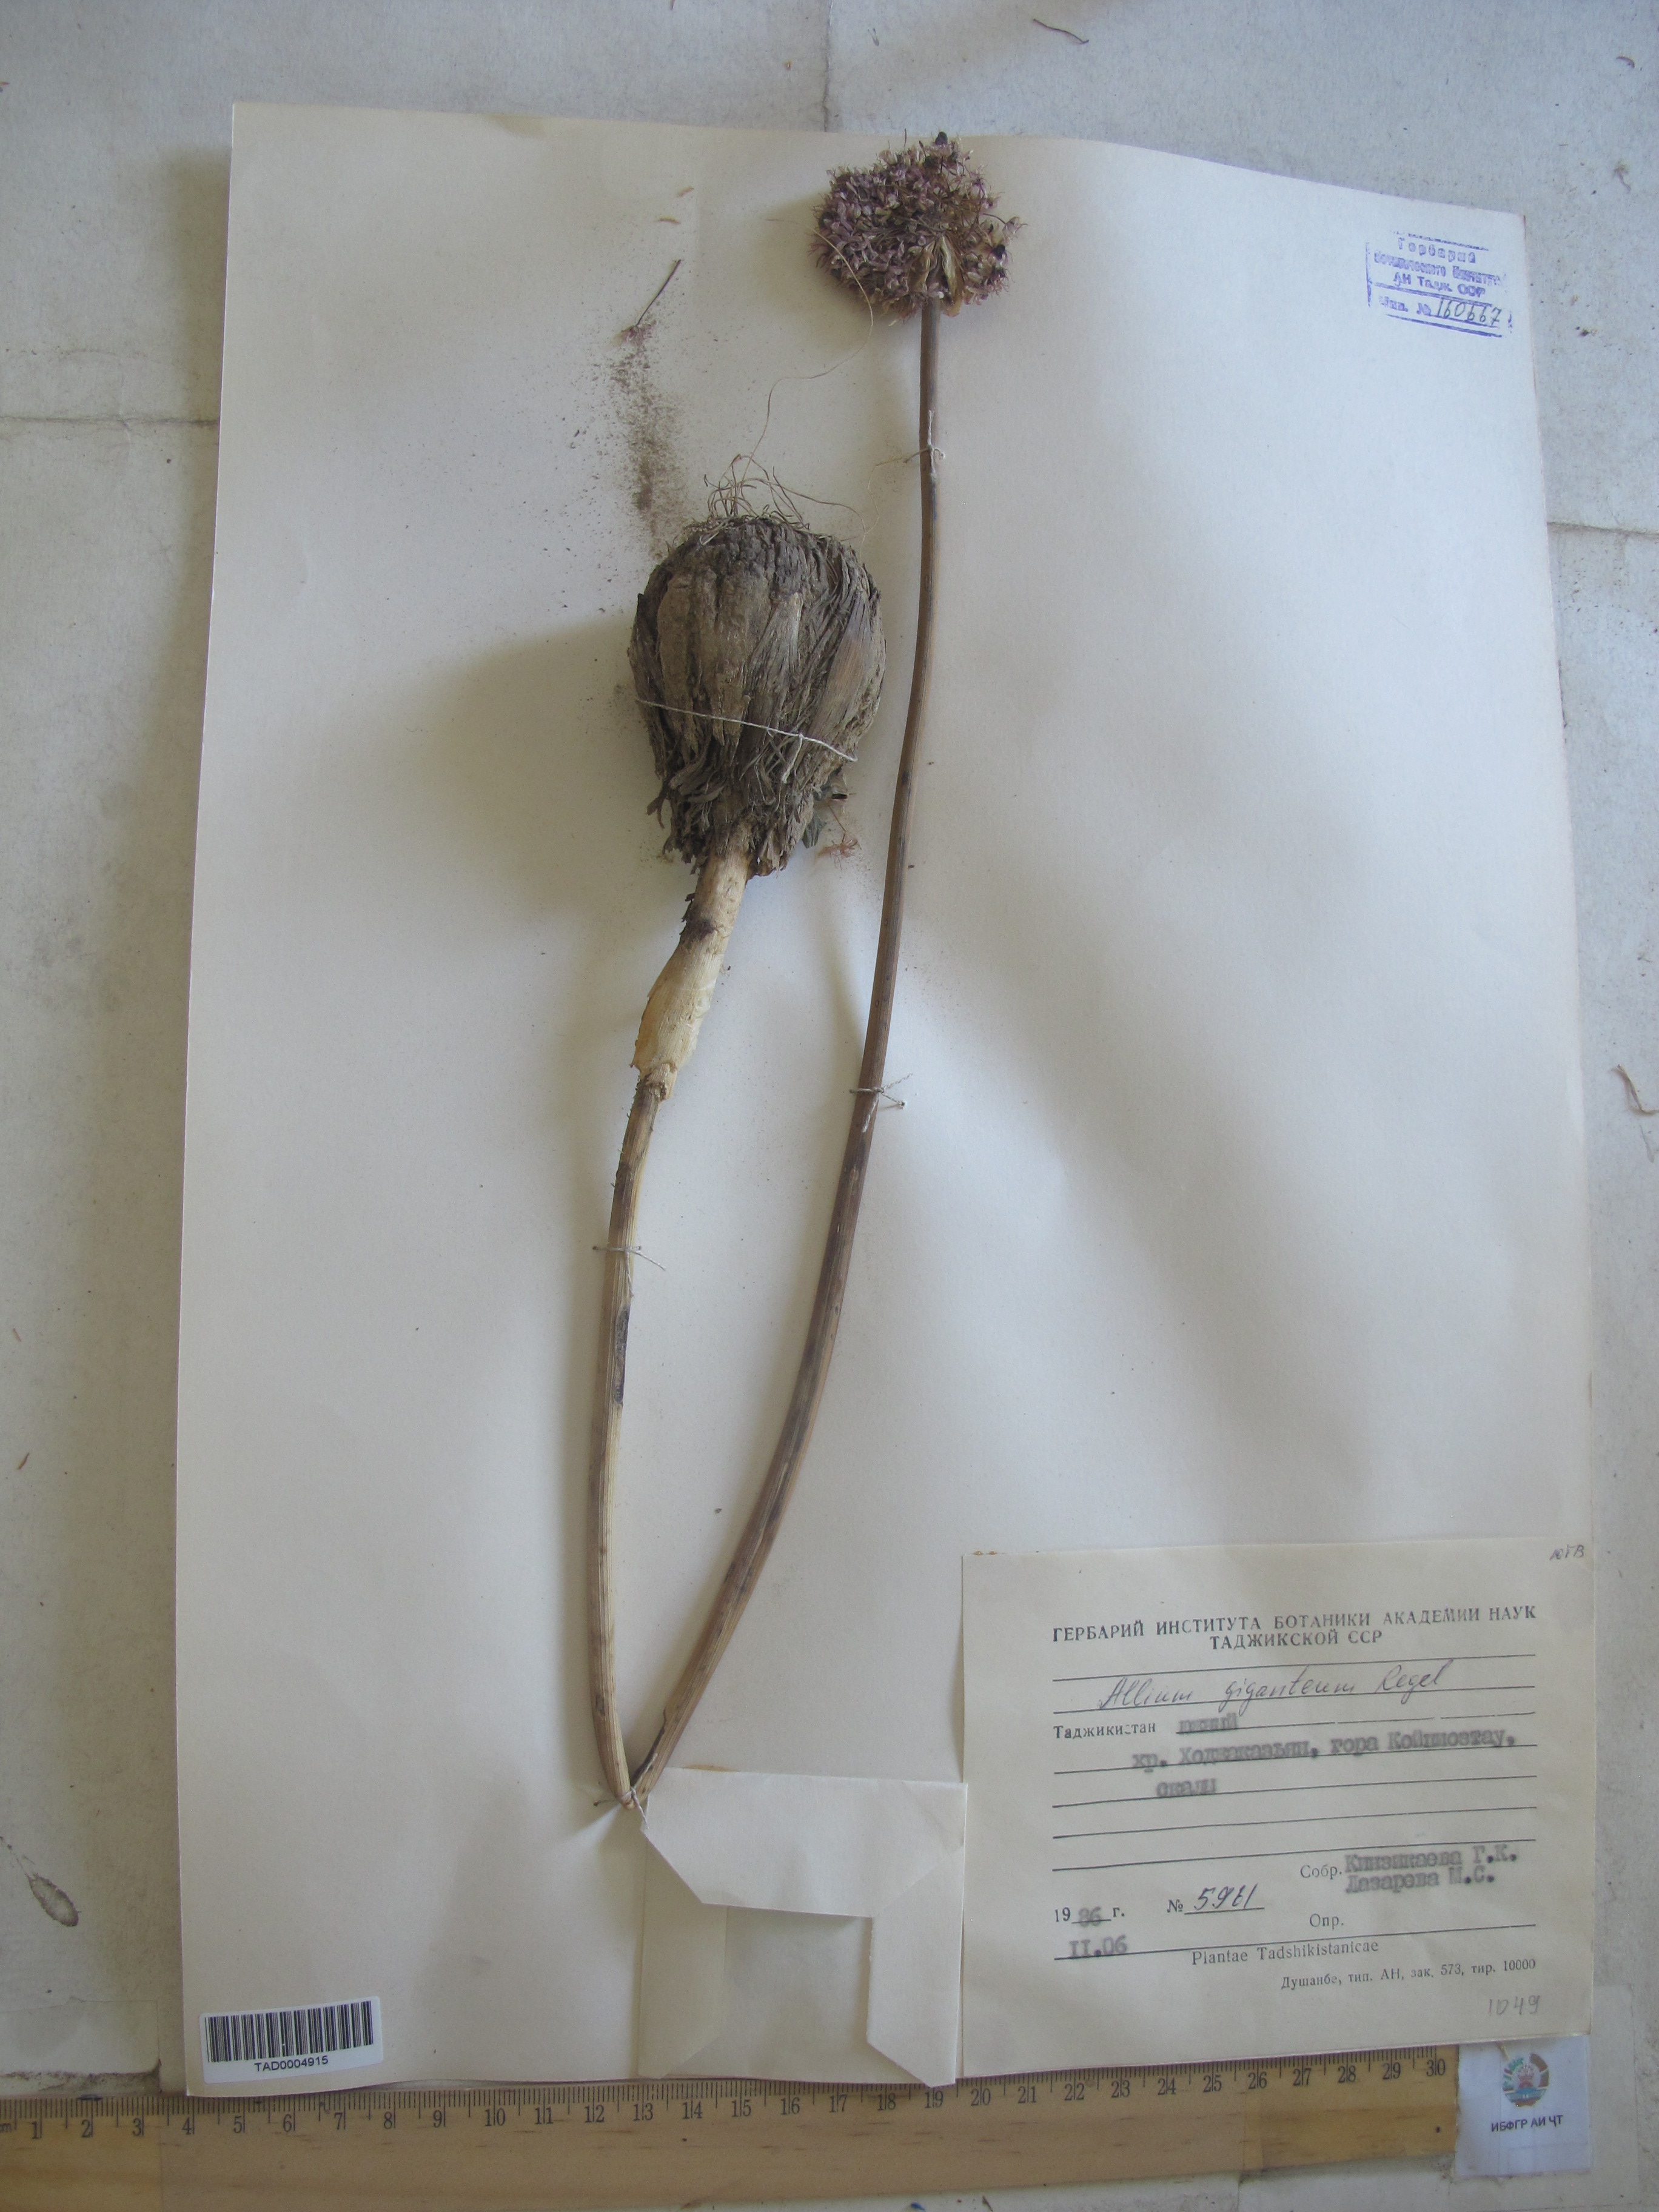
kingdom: Plantae
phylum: Tracheophyta
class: Liliopsida
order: Asparagales
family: Amaryllidaceae
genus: Allium
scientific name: Allium giganteum
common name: Giant onion
